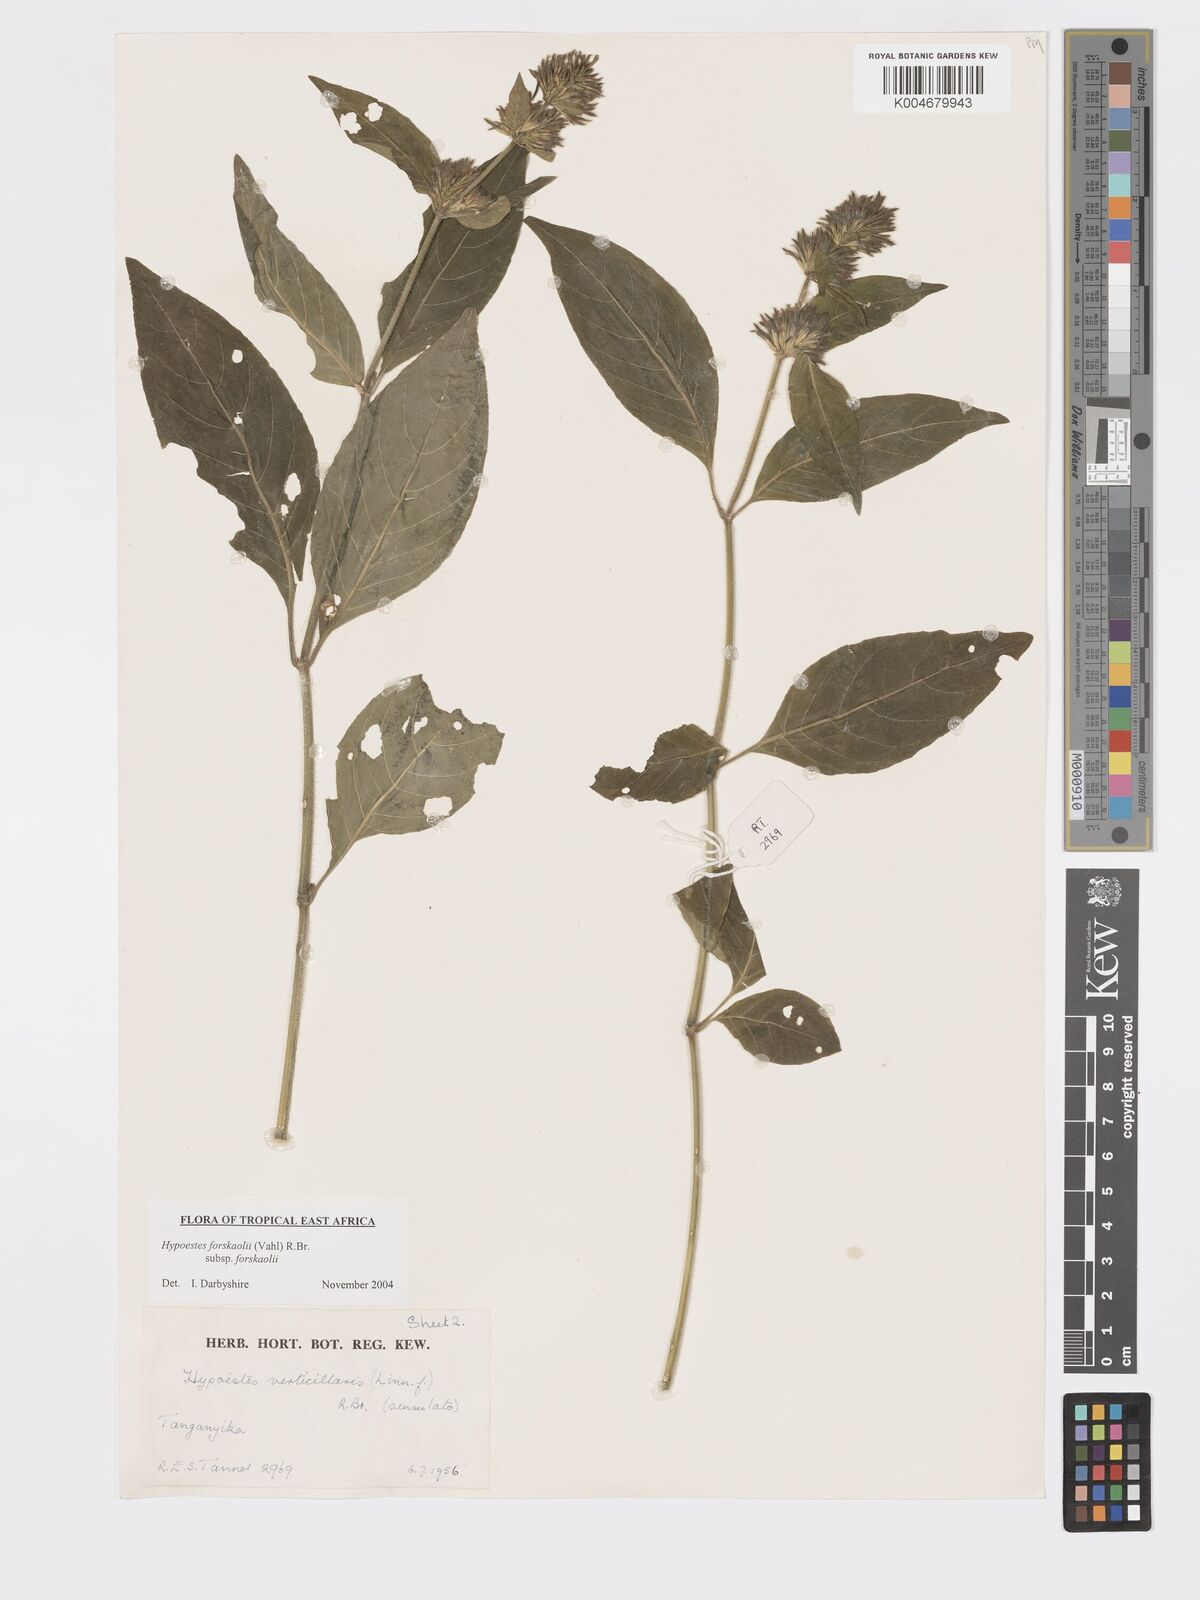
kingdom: Plantae
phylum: Tracheophyta
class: Magnoliopsida
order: Lamiales
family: Acanthaceae
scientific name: Acanthaceae
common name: Acanthaceae
